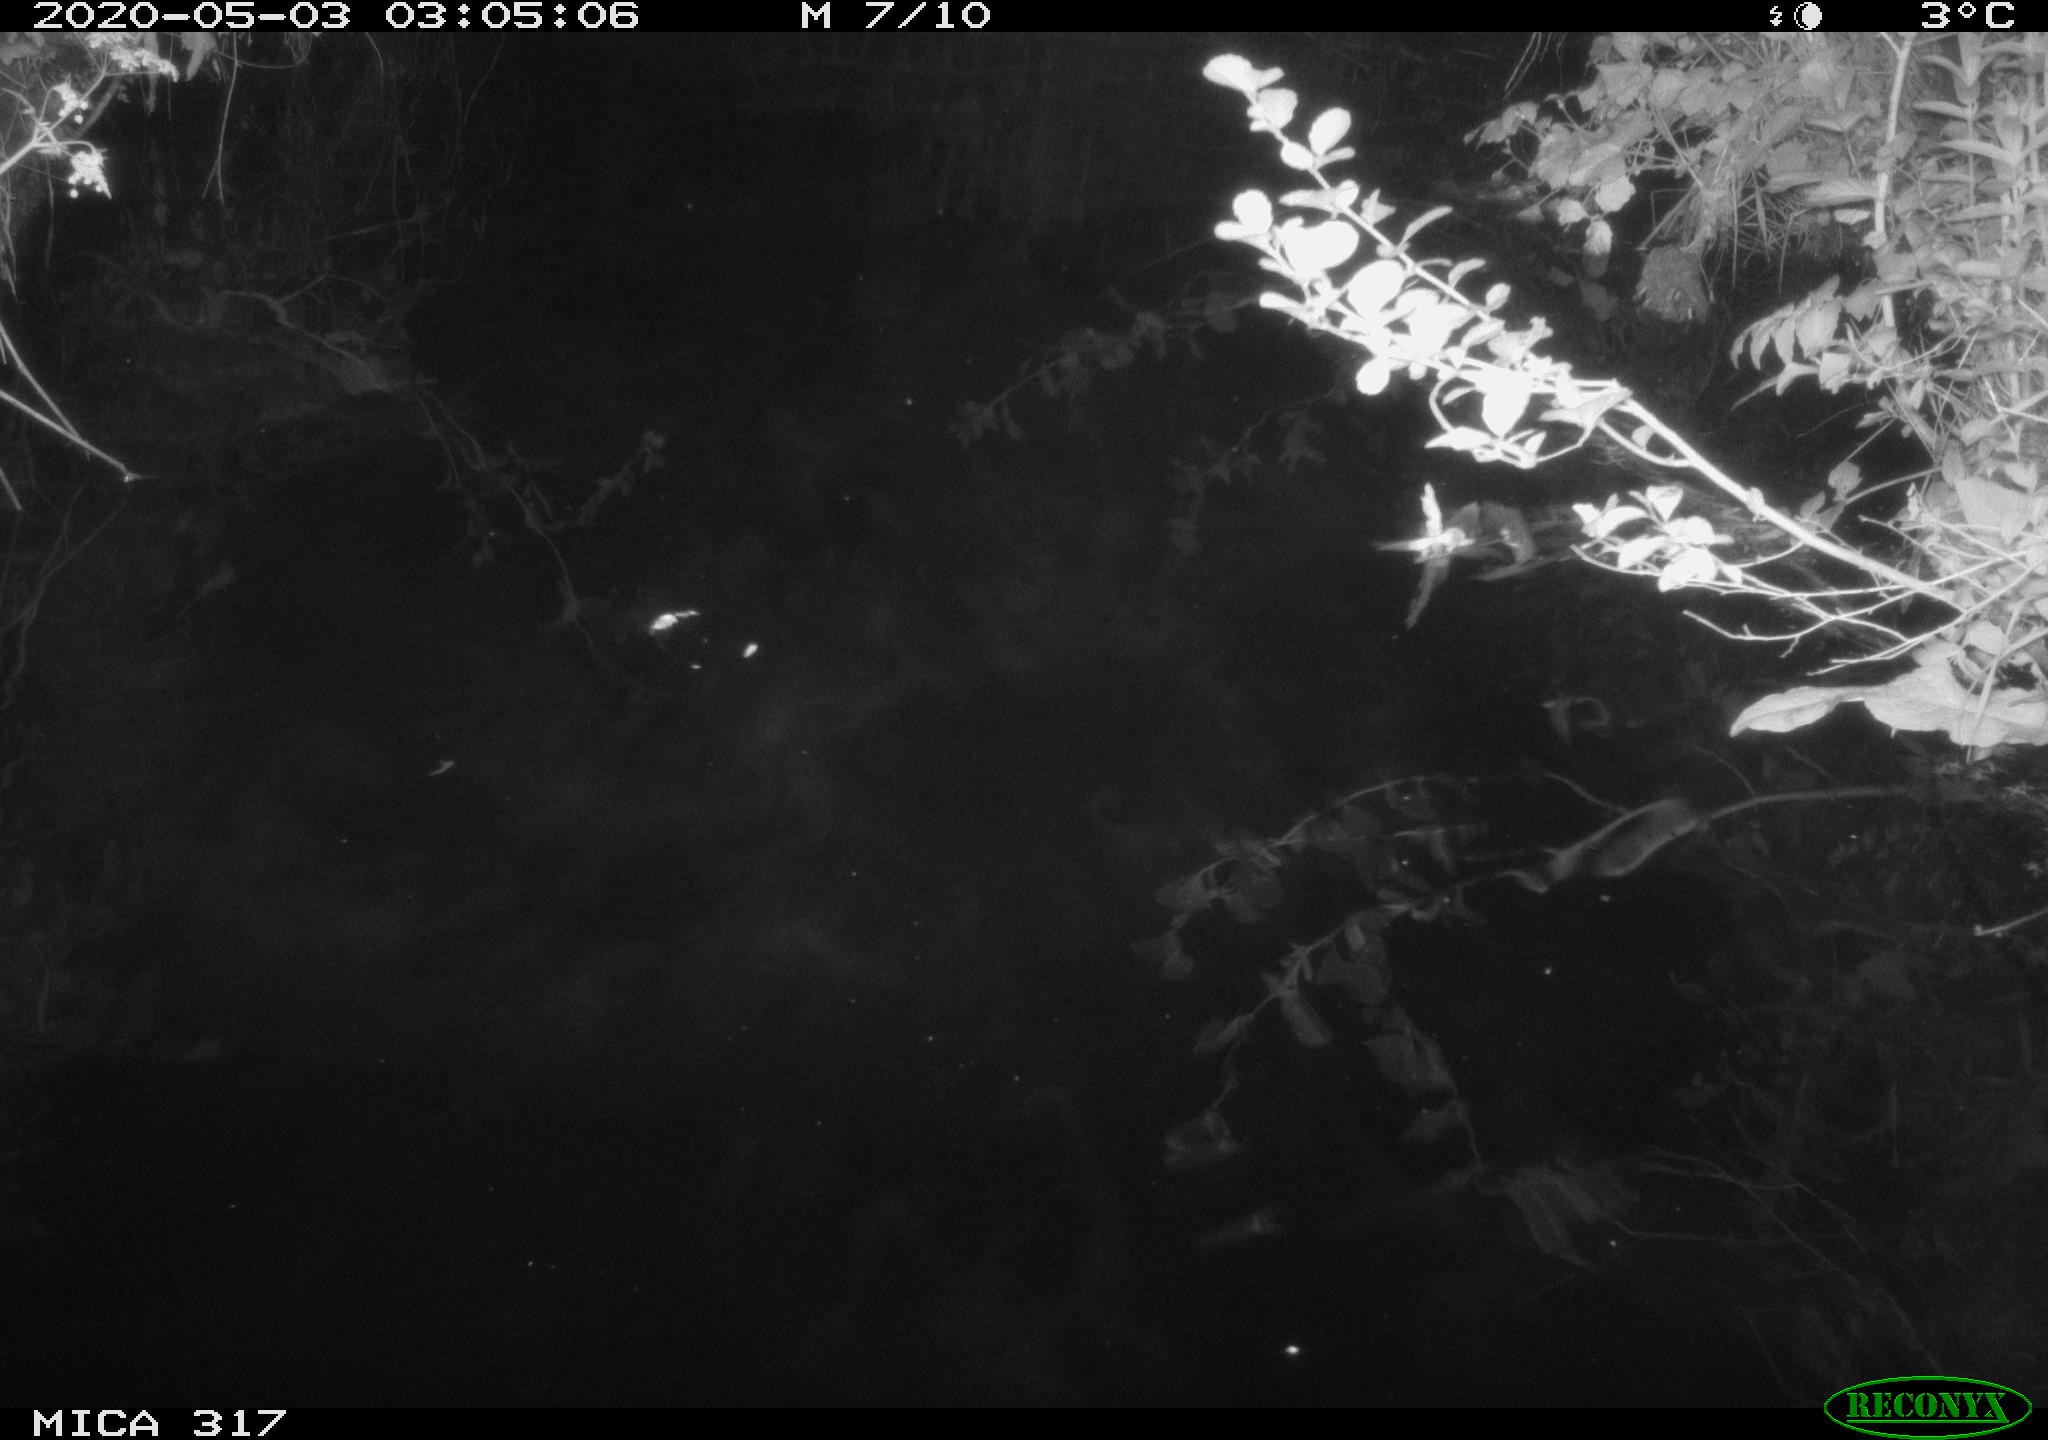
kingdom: Animalia
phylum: Chordata
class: Aves
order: Anseriformes
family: Anatidae
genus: Anas
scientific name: Anas platyrhynchos
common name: Mallard
